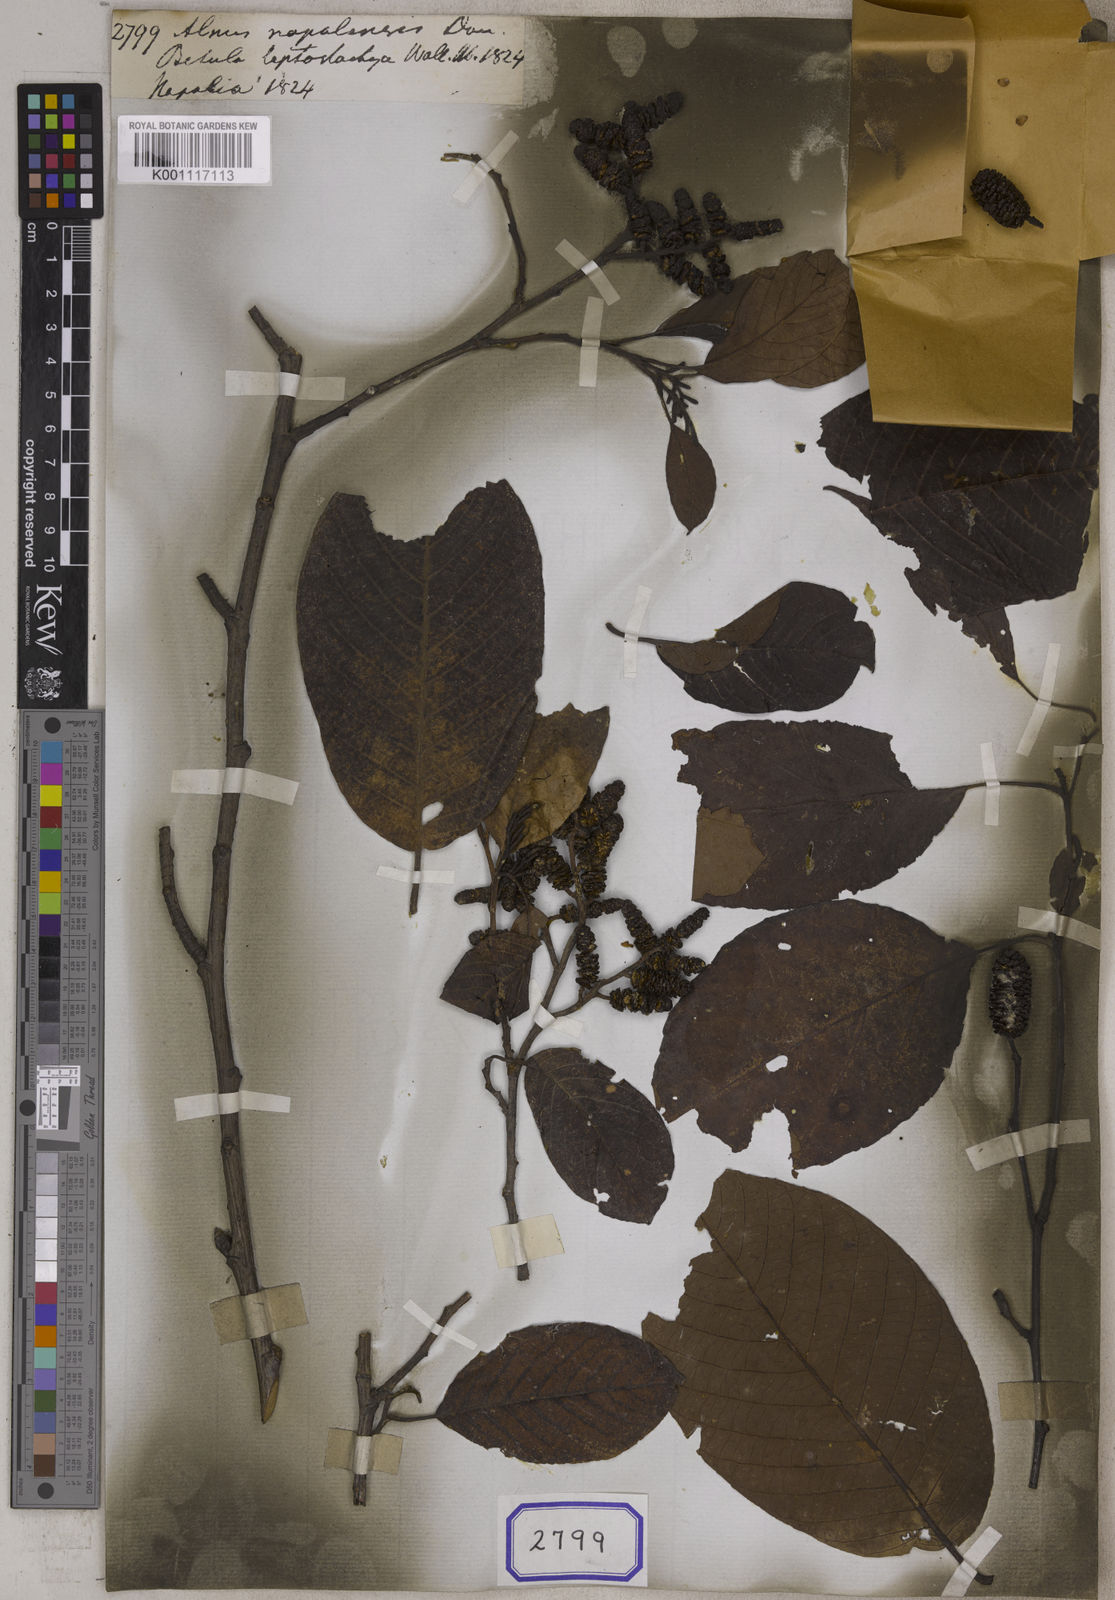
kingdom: Plantae
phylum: Tracheophyta
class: Magnoliopsida
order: Fagales
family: Betulaceae
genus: Alnus
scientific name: Alnus nepalensis
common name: Nepal alder
